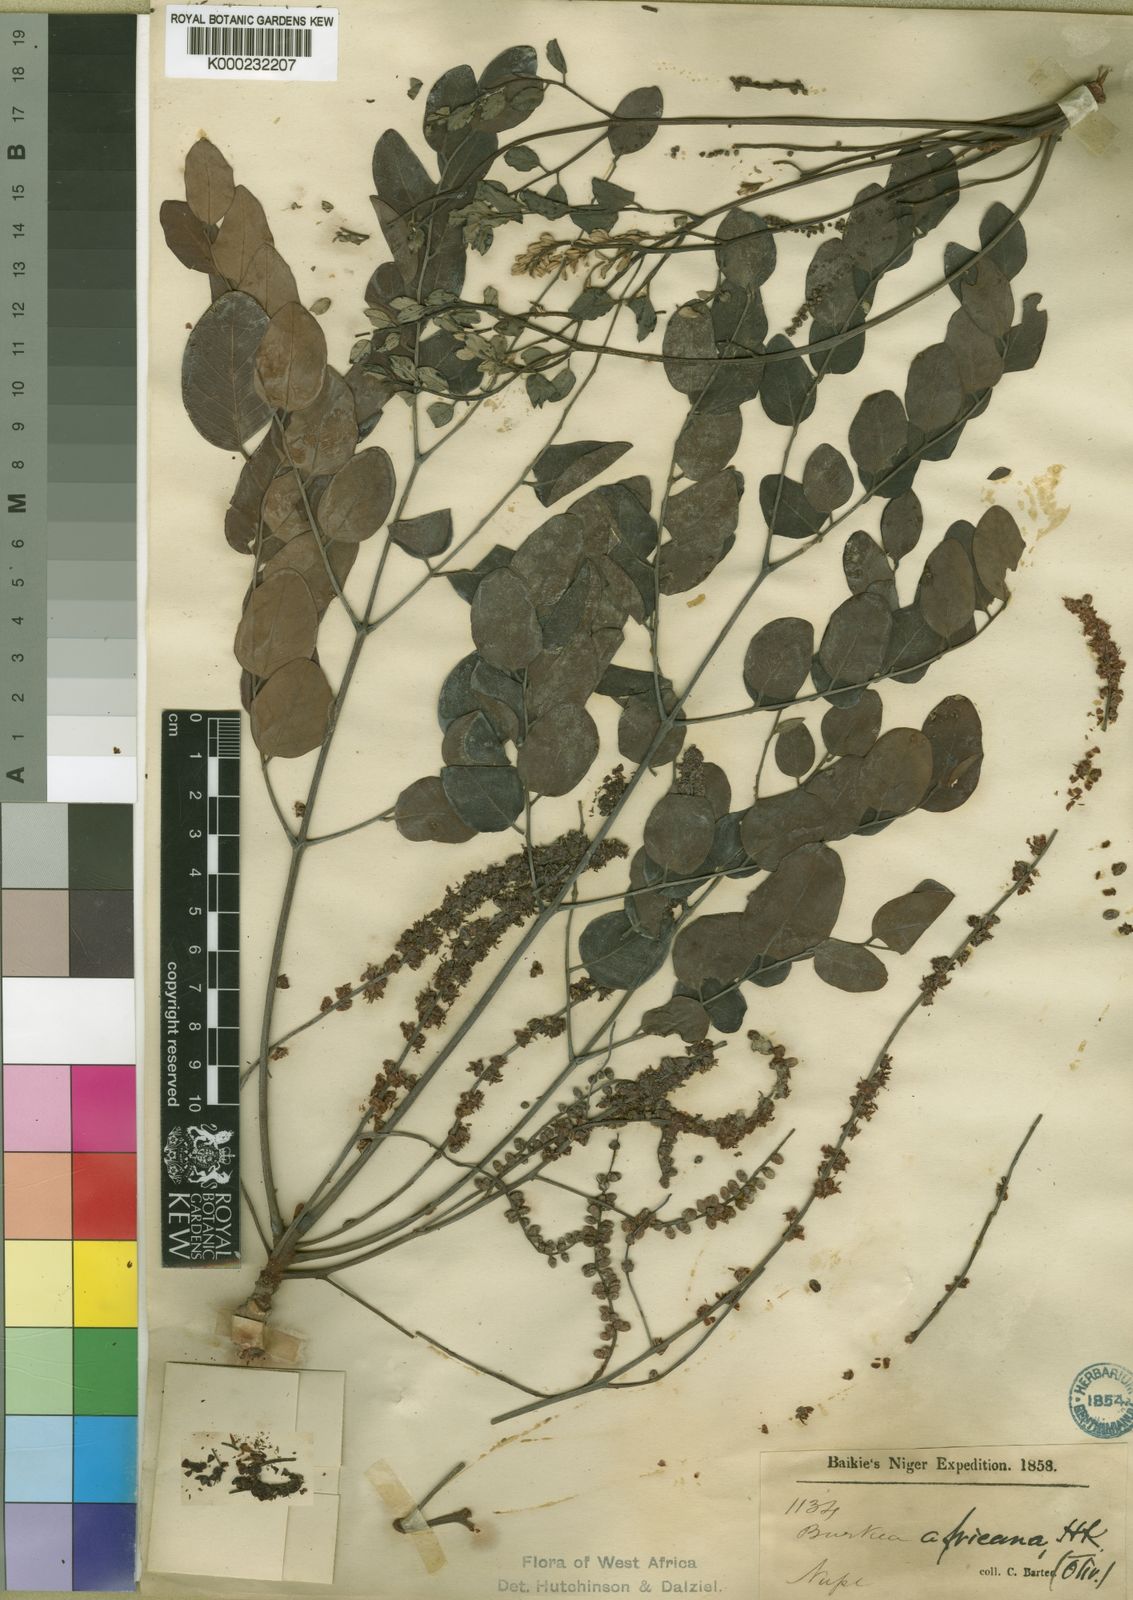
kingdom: Plantae
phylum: Tracheophyta
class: Magnoliopsida
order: Fabales
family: Fabaceae
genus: Burkea
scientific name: Burkea africana
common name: Mkalati tree
